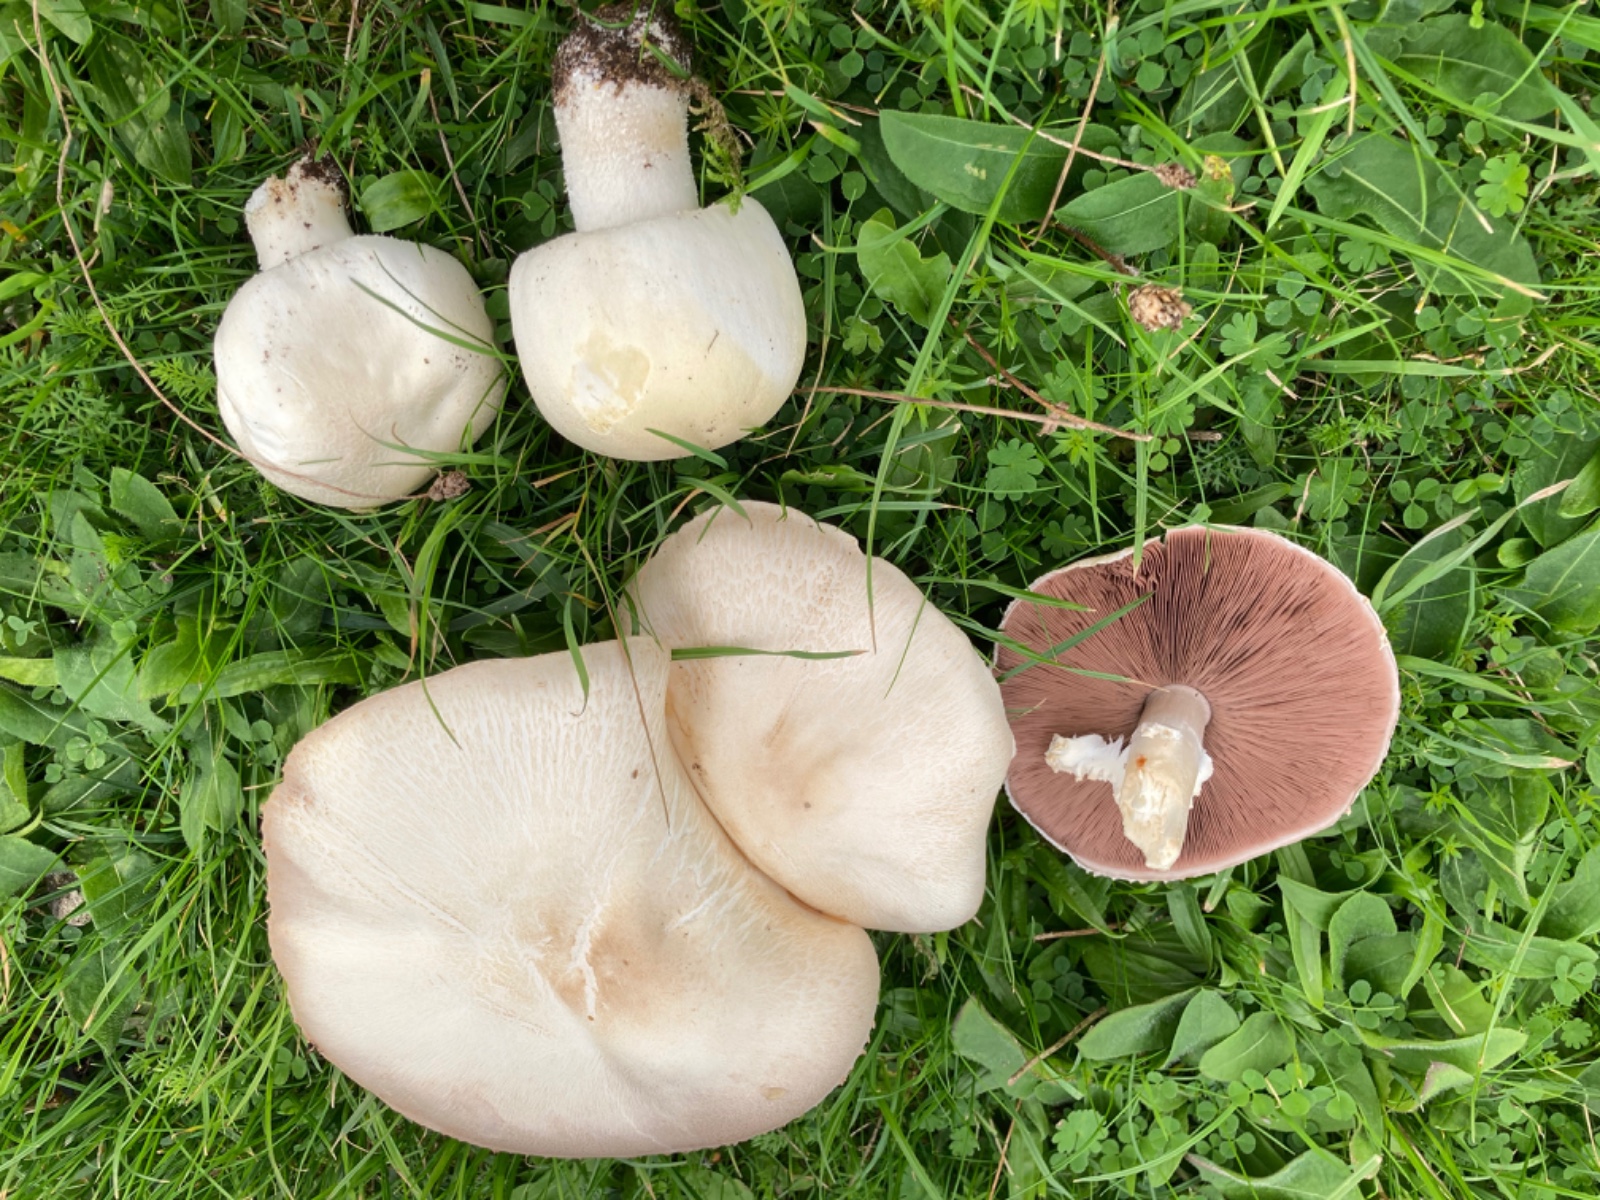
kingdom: Fungi
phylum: Basidiomycota
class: Agaricomycetes
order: Agaricales
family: Agaricaceae
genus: Agaricus
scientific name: Agaricus
